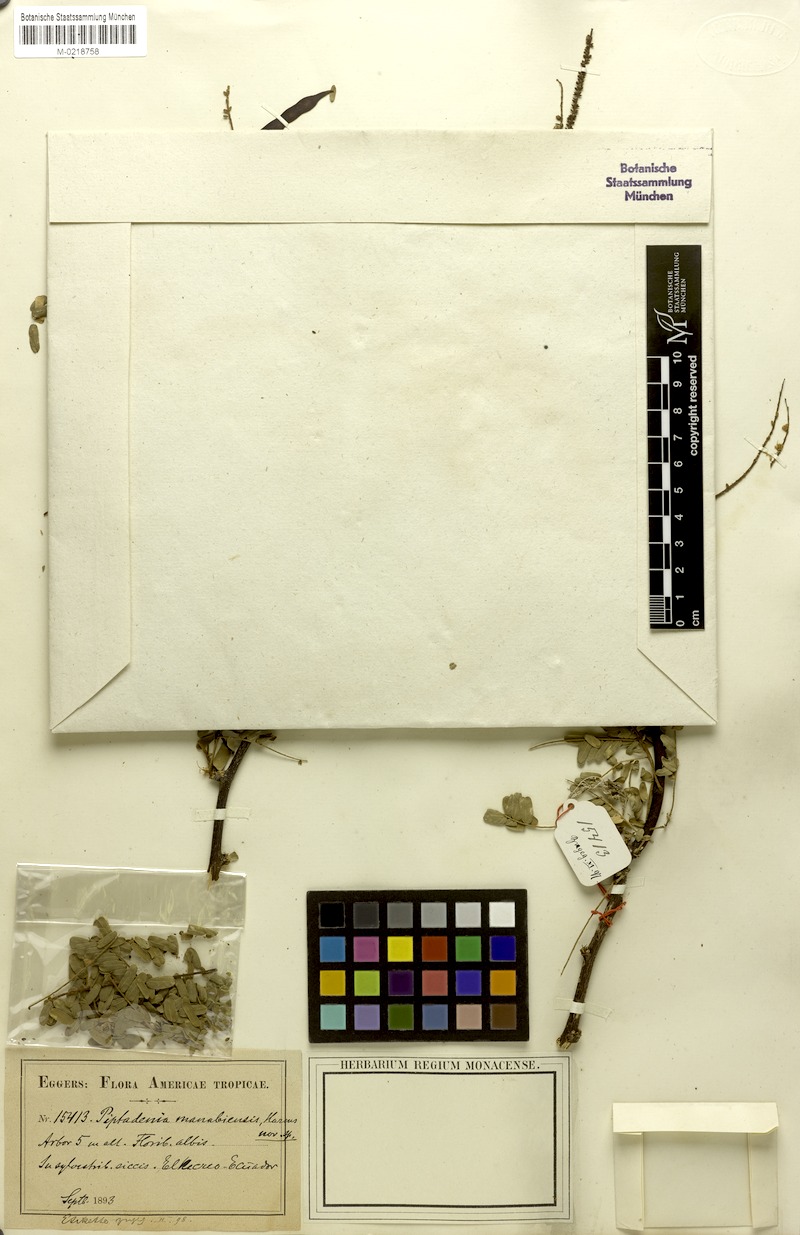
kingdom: Plantae
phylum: Tracheophyta
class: Magnoliopsida
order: Fabales
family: Fabaceae
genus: Piptadenia
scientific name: Piptadenia
